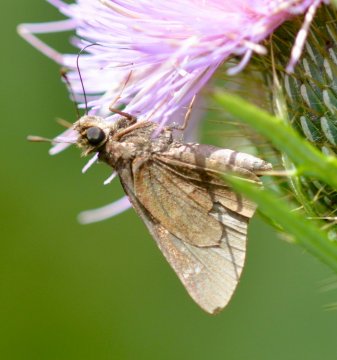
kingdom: Animalia
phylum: Arthropoda
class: Insecta
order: Lepidoptera
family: Hesperiidae
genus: Lerodea
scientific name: Lerodea eufala
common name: Eufala Skipper
